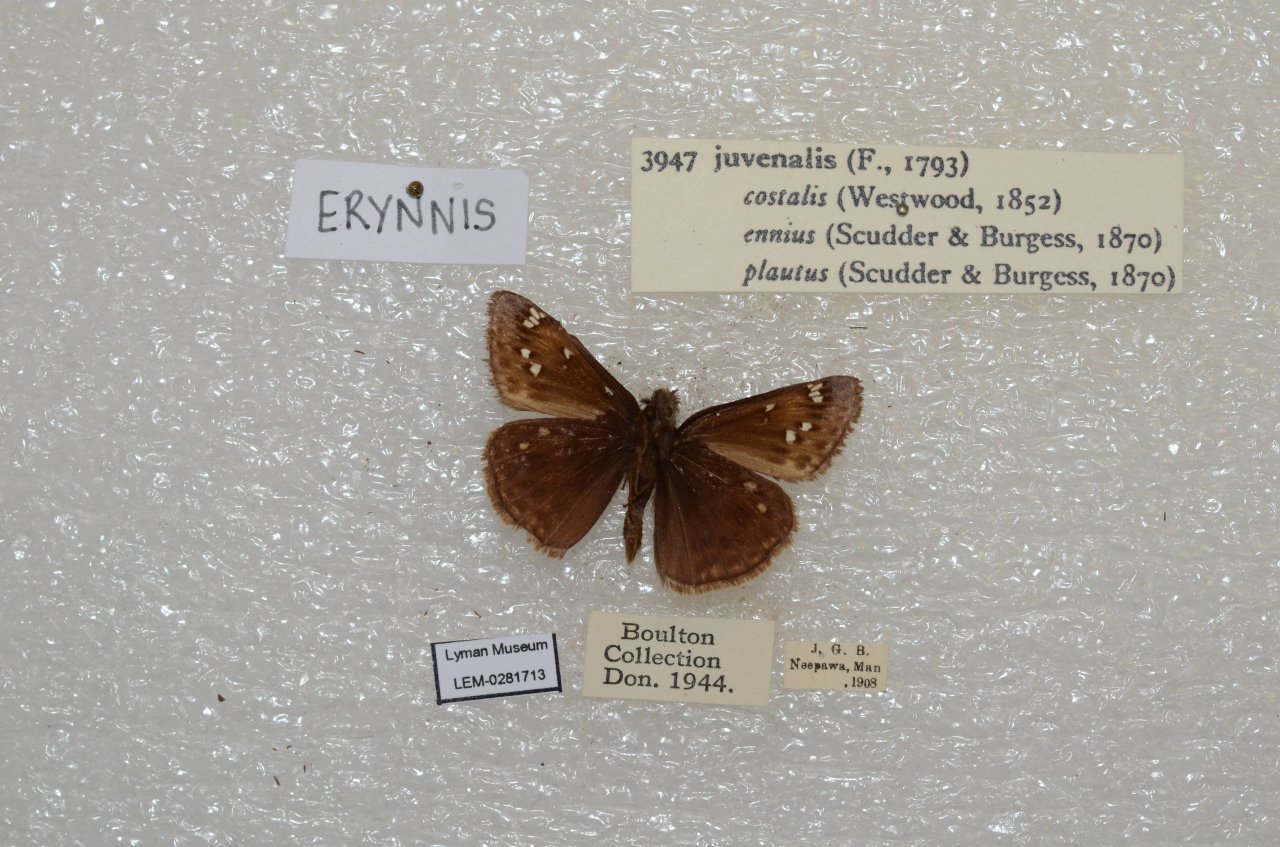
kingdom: Animalia
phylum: Arthropoda
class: Insecta
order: Lepidoptera
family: Hesperiidae
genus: Gesta
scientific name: Gesta
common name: Juvenal's Duskywing
